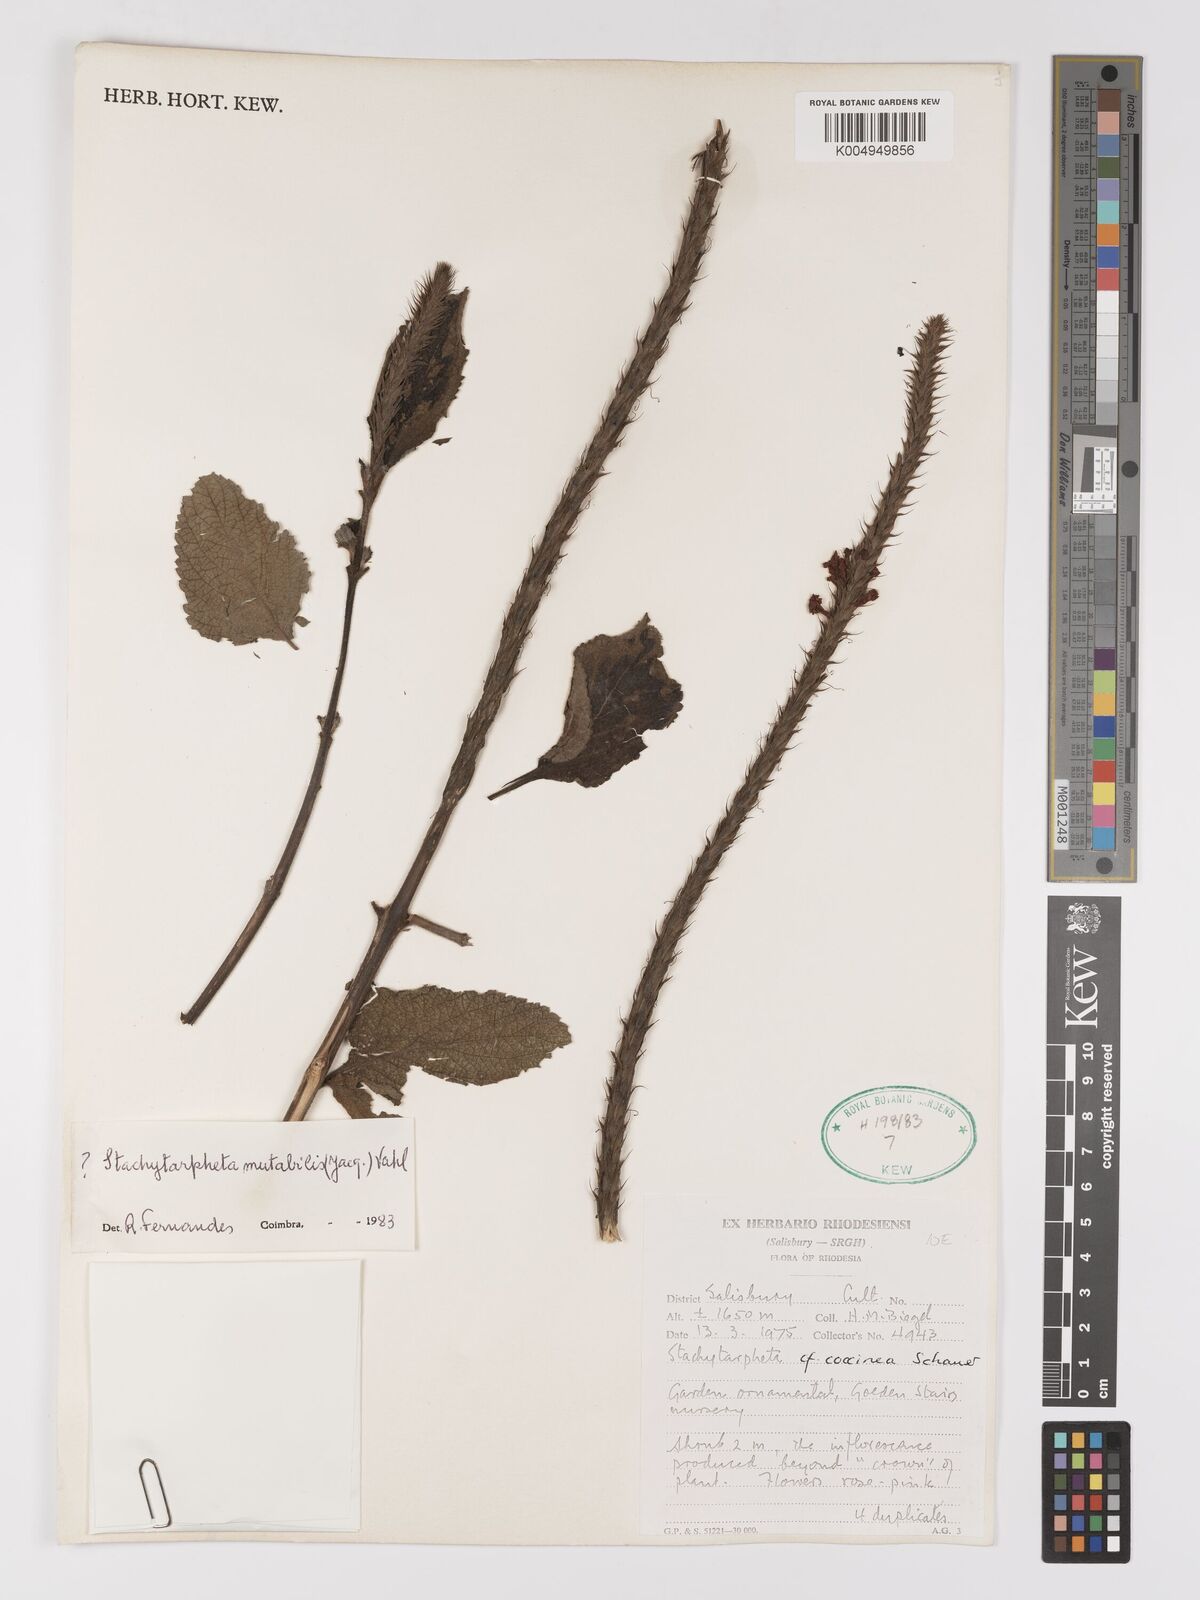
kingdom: Plantae
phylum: Tracheophyta
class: Magnoliopsida
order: Lamiales
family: Verbenaceae
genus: Stachytarpheta
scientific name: Stachytarpheta mutabilis
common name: Changeable velvetberry
